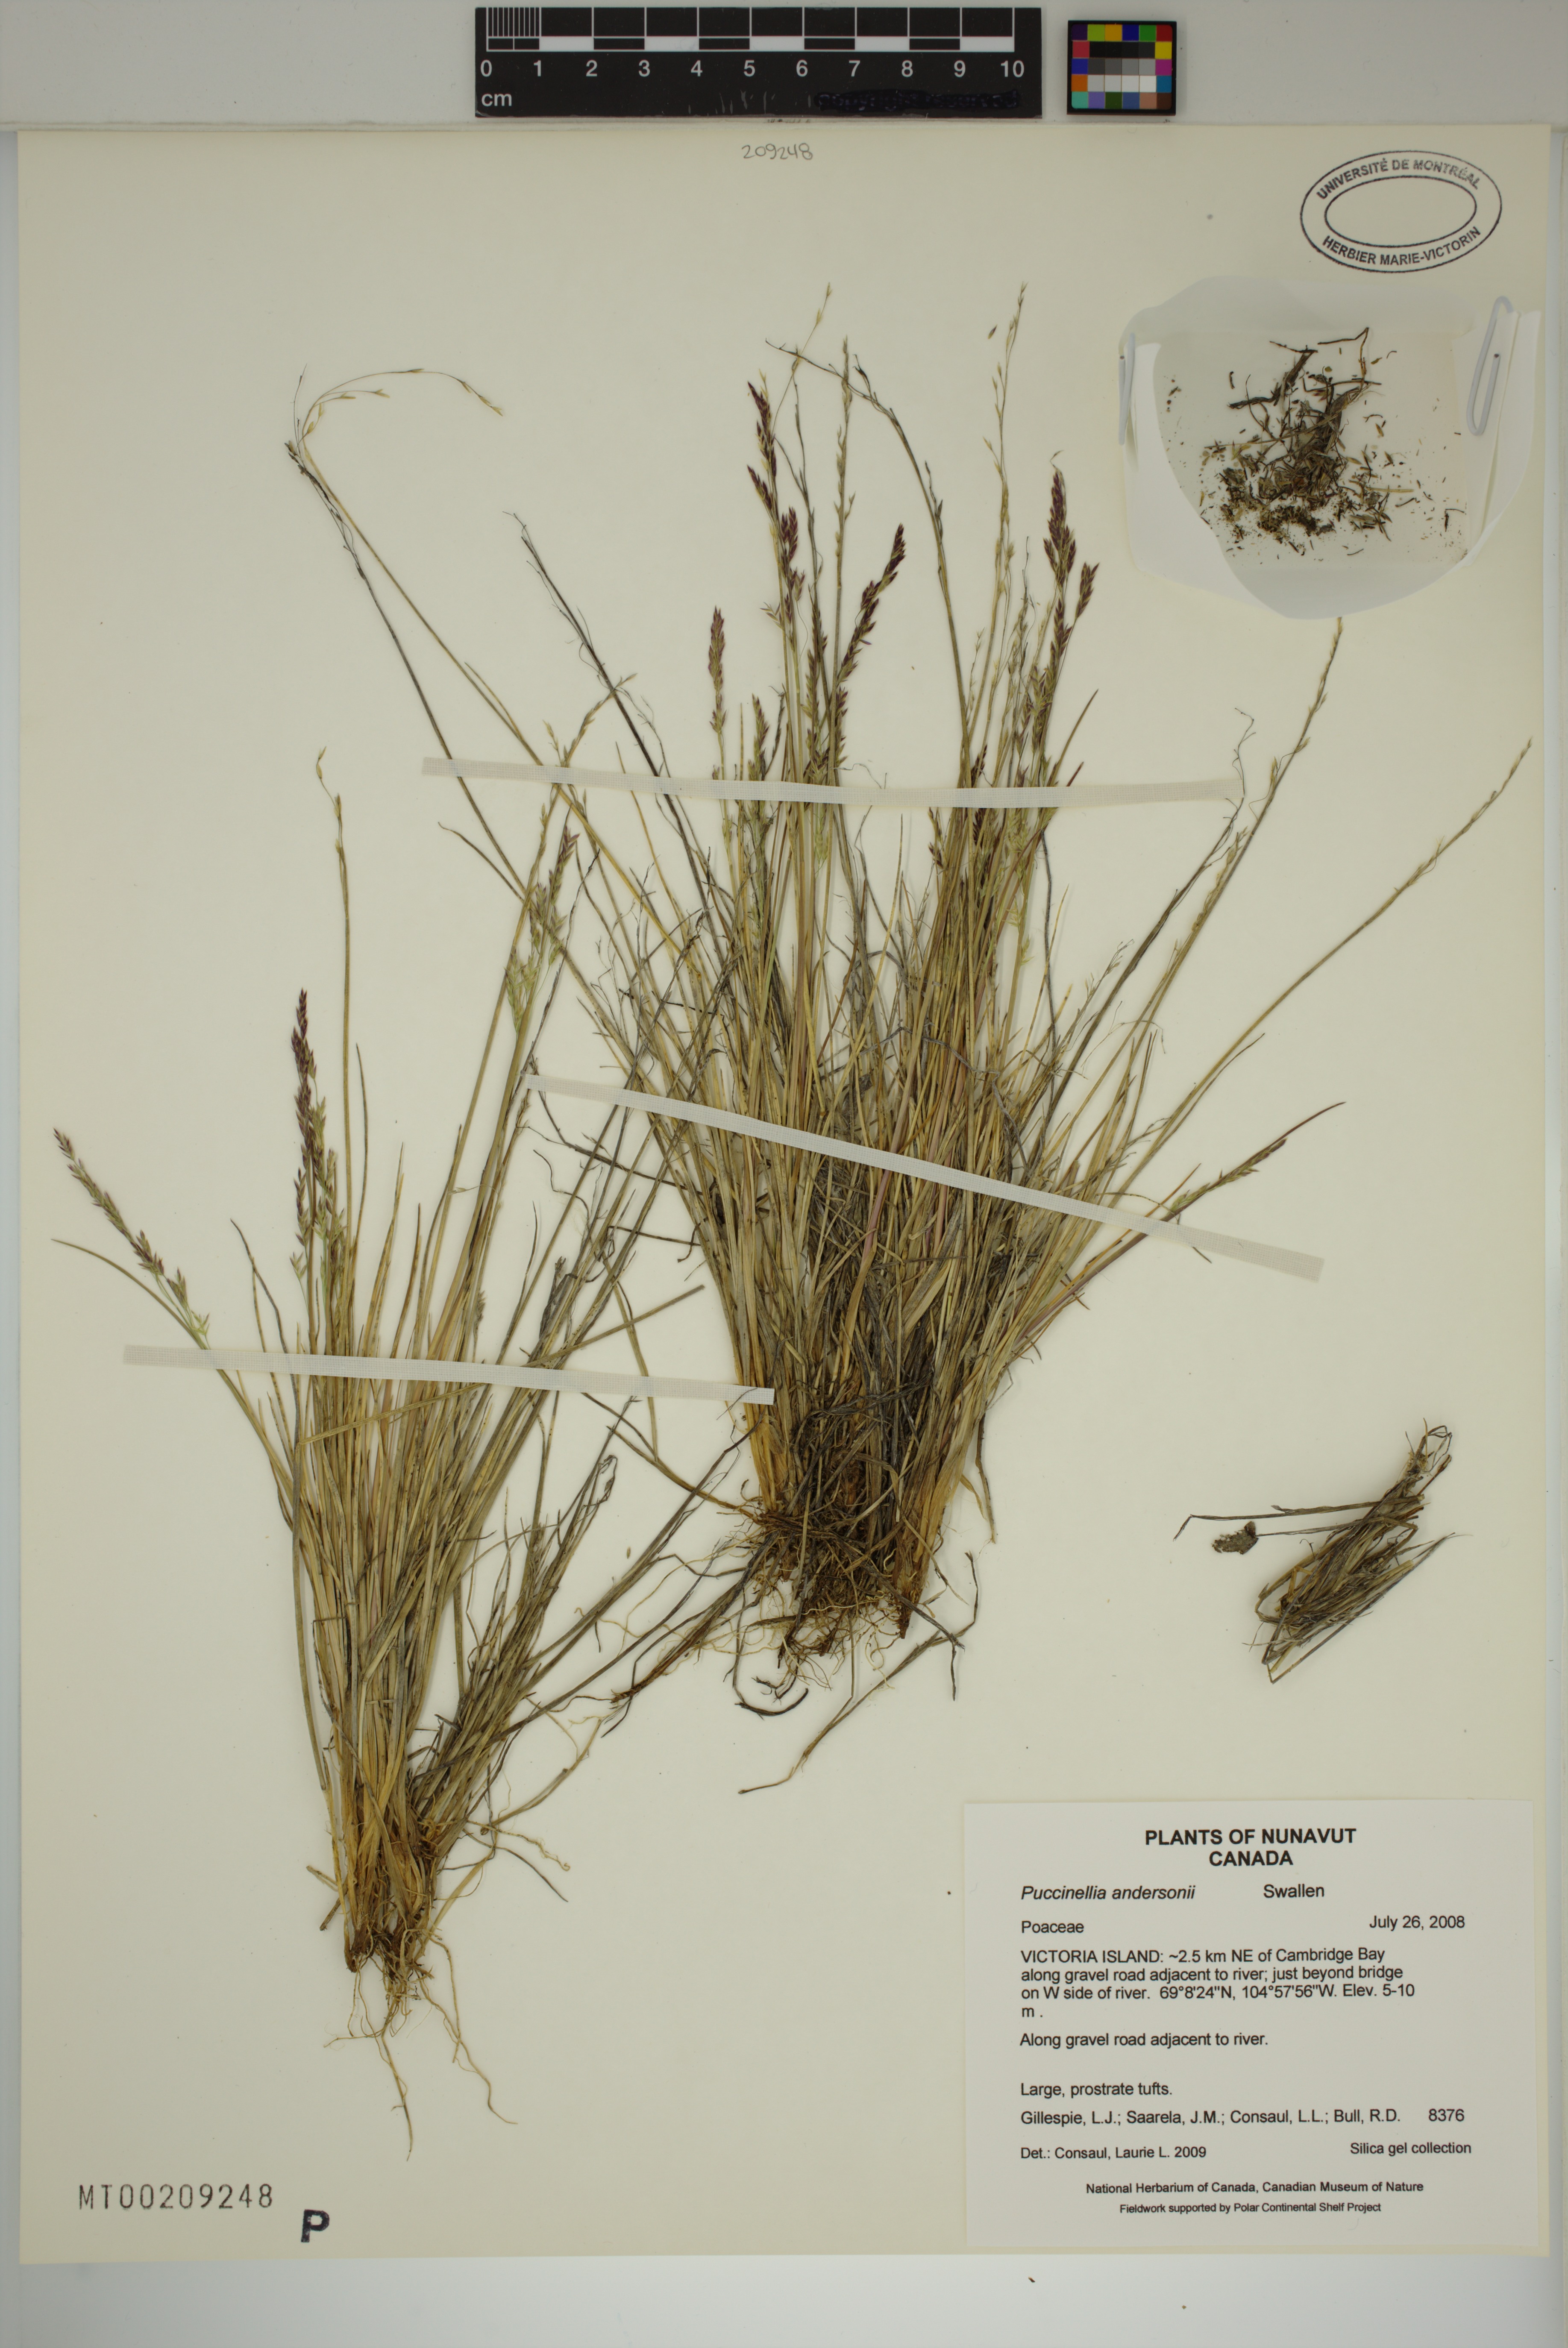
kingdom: Plantae
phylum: Tracheophyta
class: Liliopsida
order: Poales
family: Poaceae
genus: Puccinellia
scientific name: Puccinellia andersonii
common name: Anderson's alkali grass
